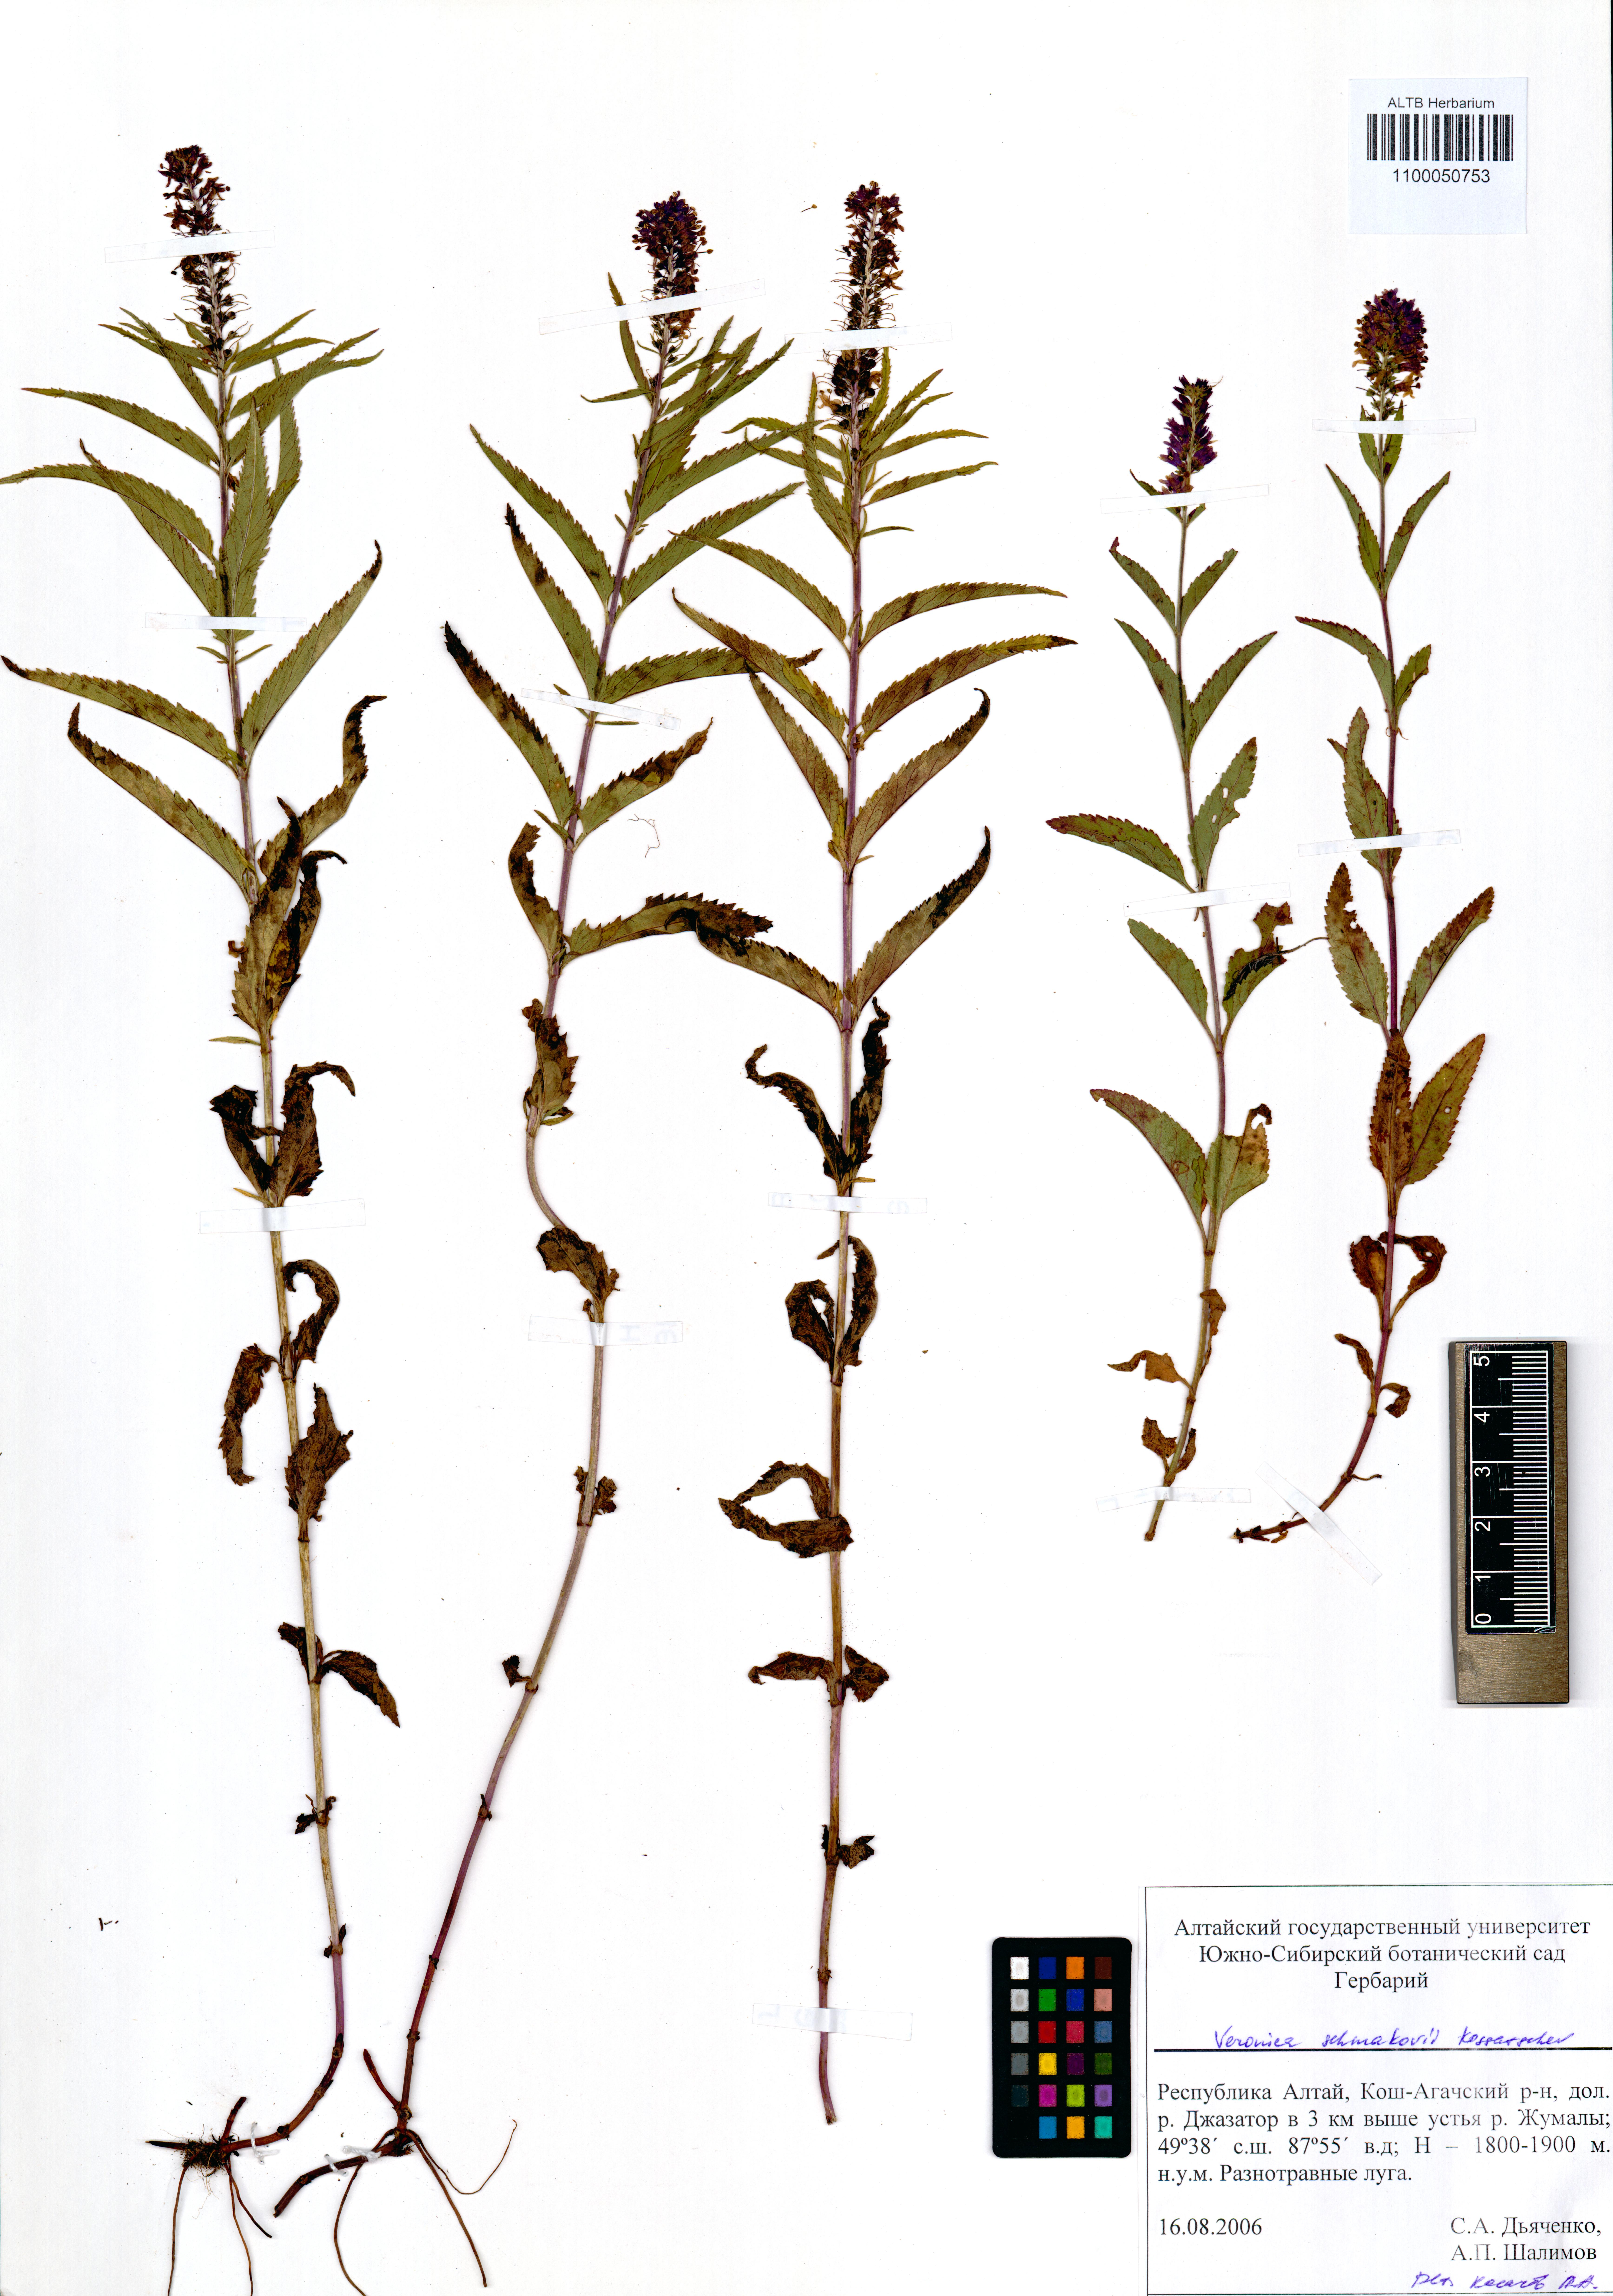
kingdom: Plantae
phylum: Tracheophyta
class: Magnoliopsida
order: Lamiales
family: Plantaginaceae
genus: Veronica
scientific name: Veronica schmakovii
